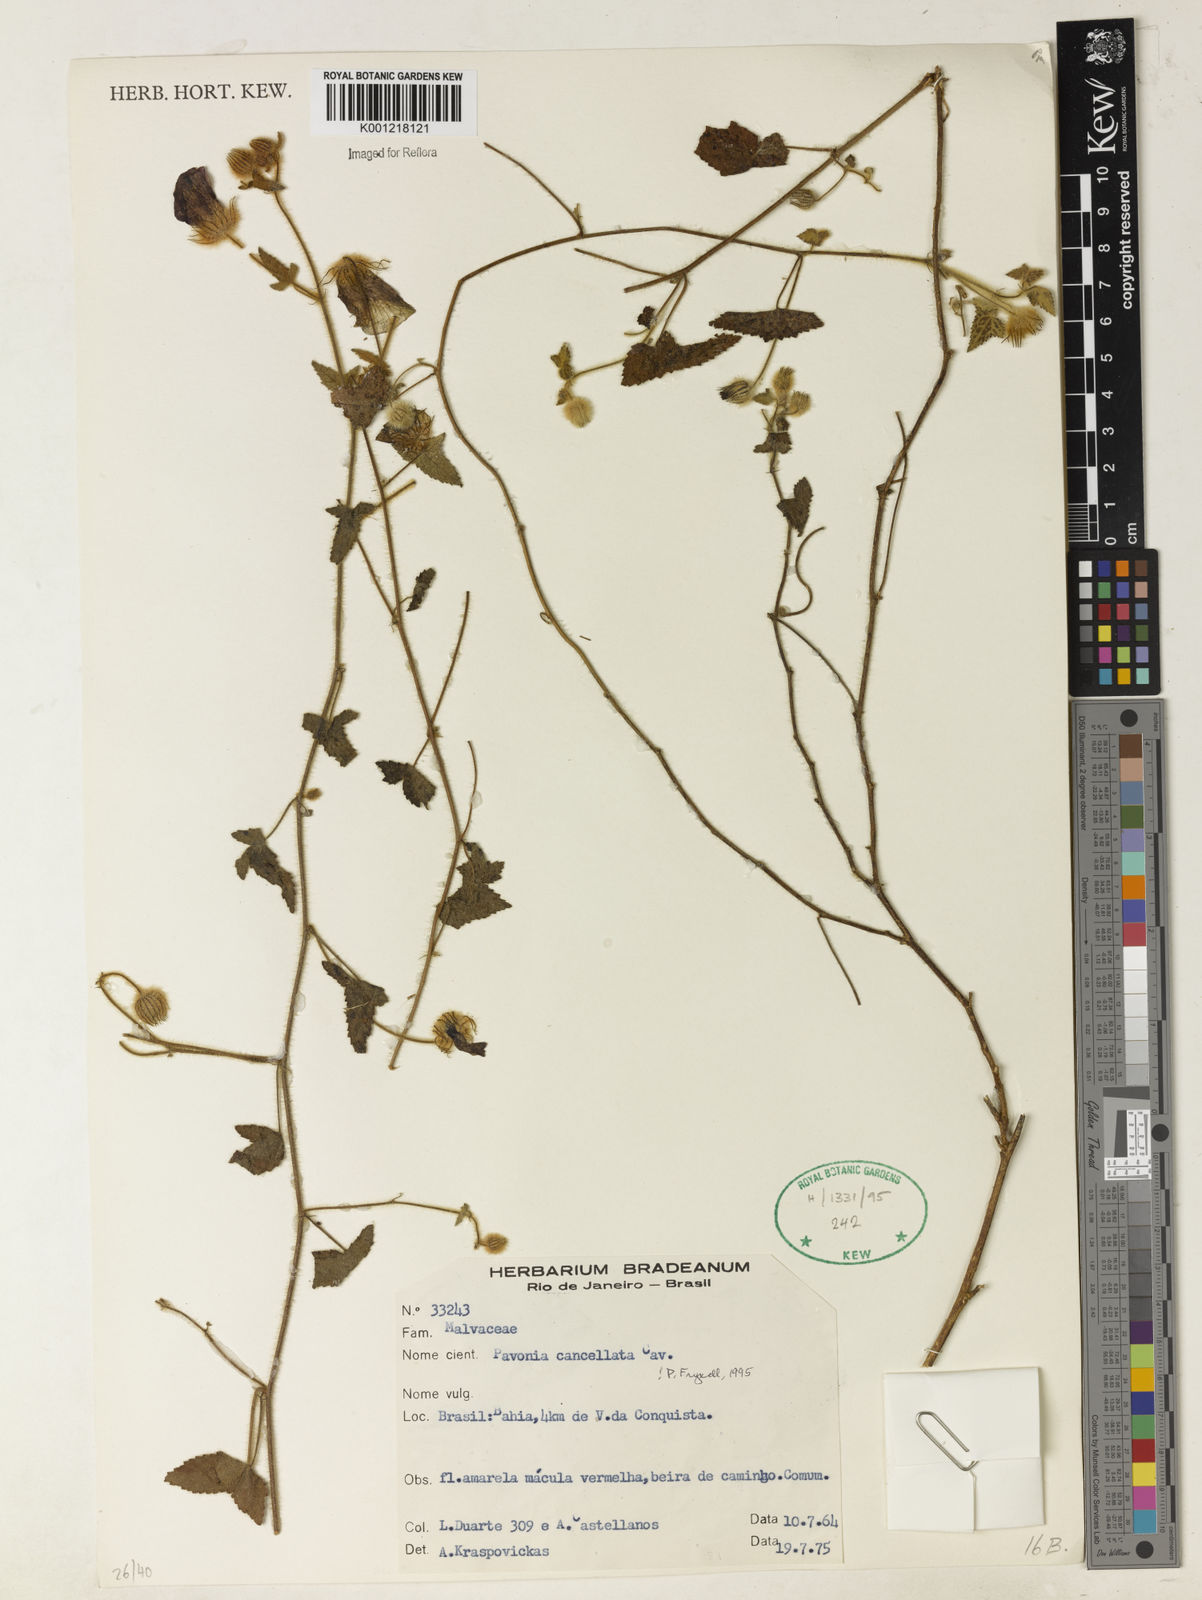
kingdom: Plantae
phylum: Tracheophyta
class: Magnoliopsida
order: Malvales
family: Malvaceae
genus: Pavonia
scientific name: Pavonia cancellata
